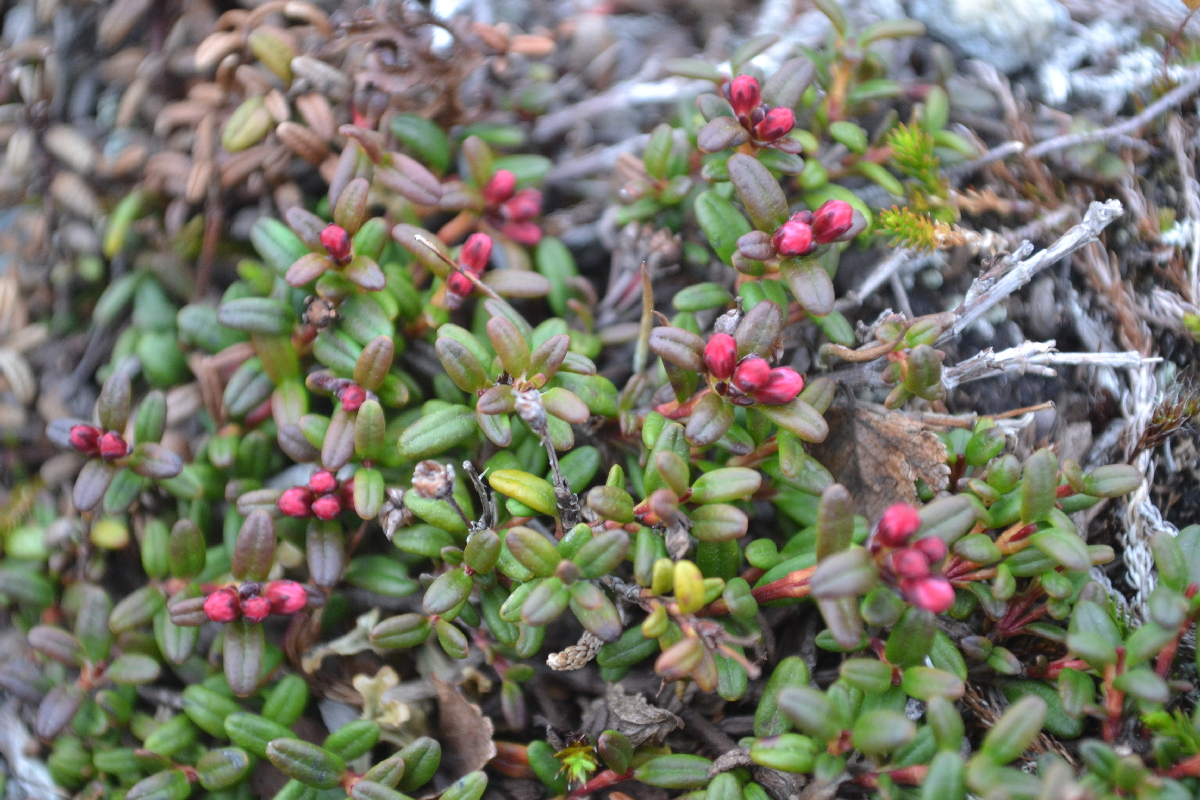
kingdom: Plantae
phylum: Tracheophyta
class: Magnoliopsida
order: Ericales
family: Ericaceae
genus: Kalmia
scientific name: Kalmia procumbens
